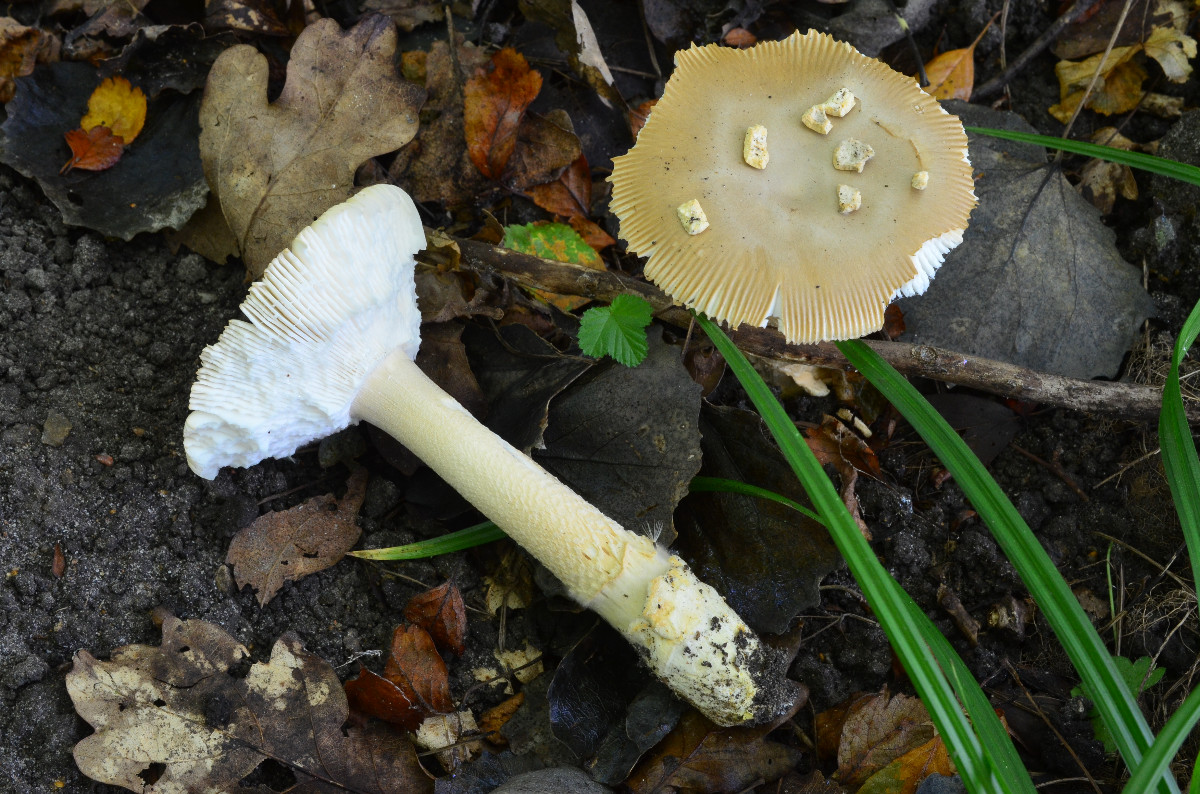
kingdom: Fungi
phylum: Basidiomycota
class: Agaricomycetes
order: Agaricales
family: Amanitaceae
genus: Amanita
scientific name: Amanita lividopallescens
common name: afblegende kam-fluesvamp
